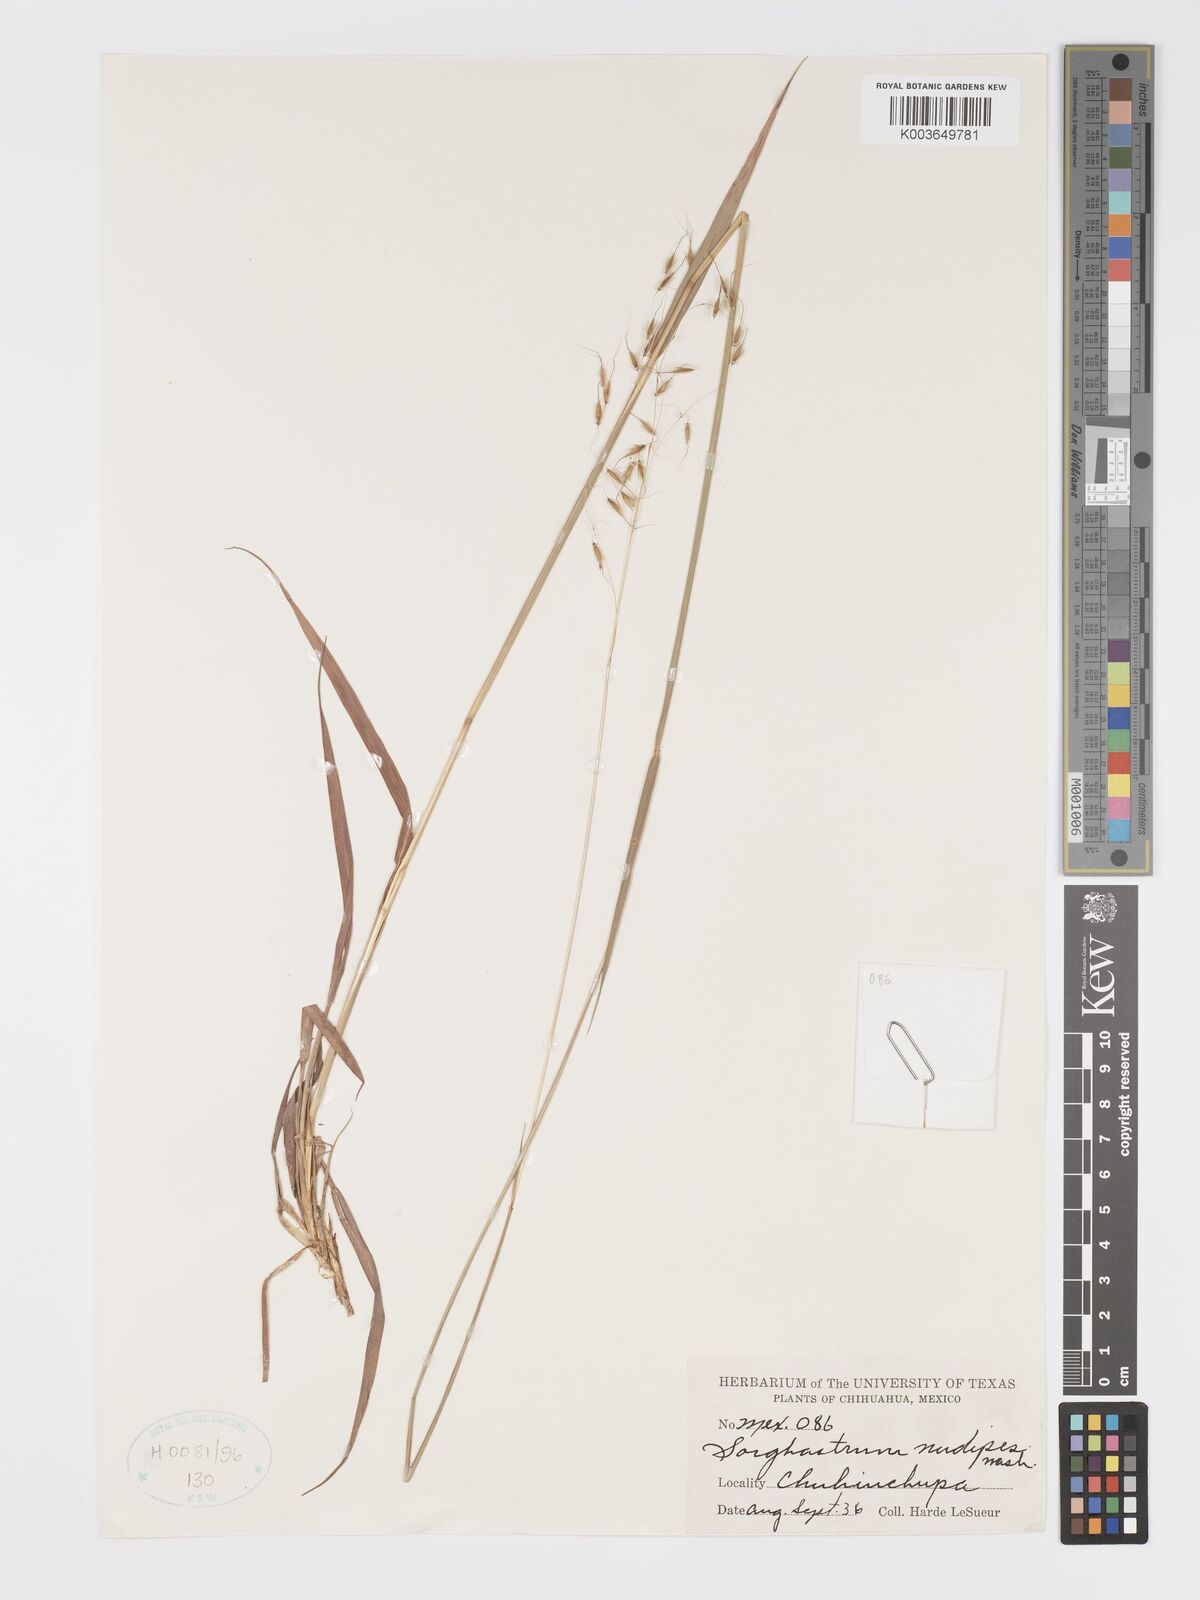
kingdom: Plantae
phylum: Tracheophyta
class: Liliopsida
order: Poales
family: Poaceae
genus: Sorghastrum
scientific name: Sorghastrum nudipes
